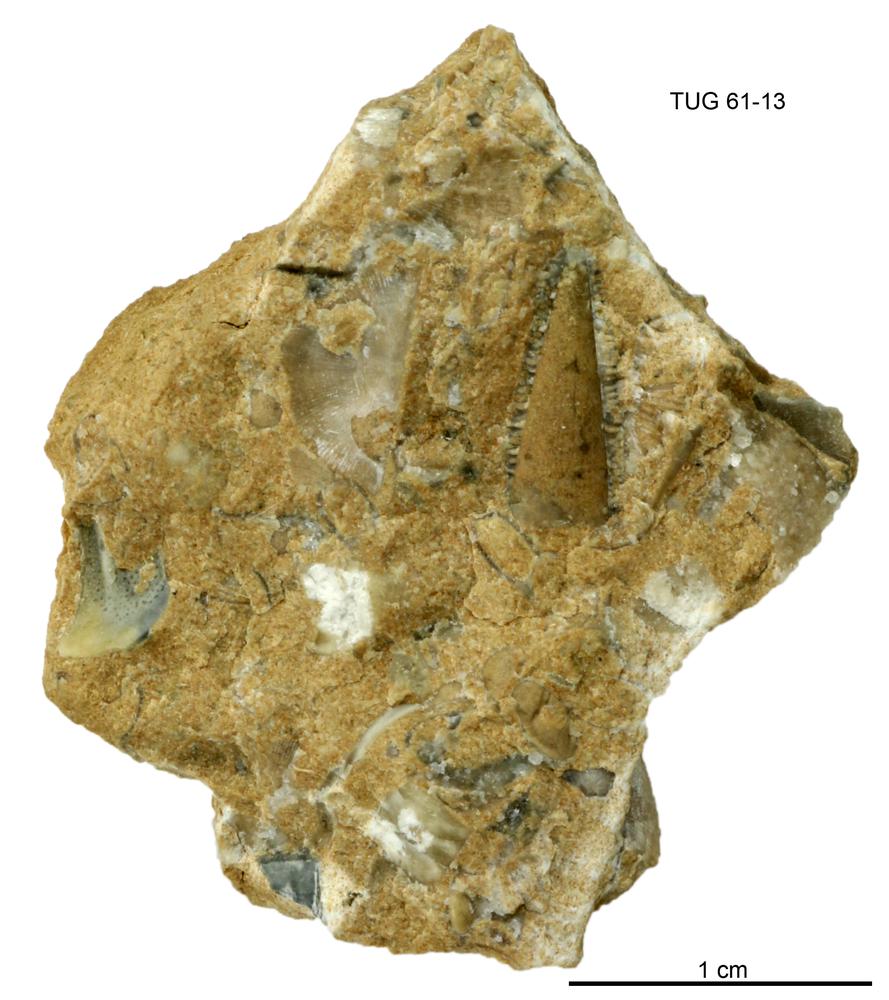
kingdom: Animalia
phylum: Annelida
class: Polychaeta
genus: Hyolithes
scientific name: Hyolithes
